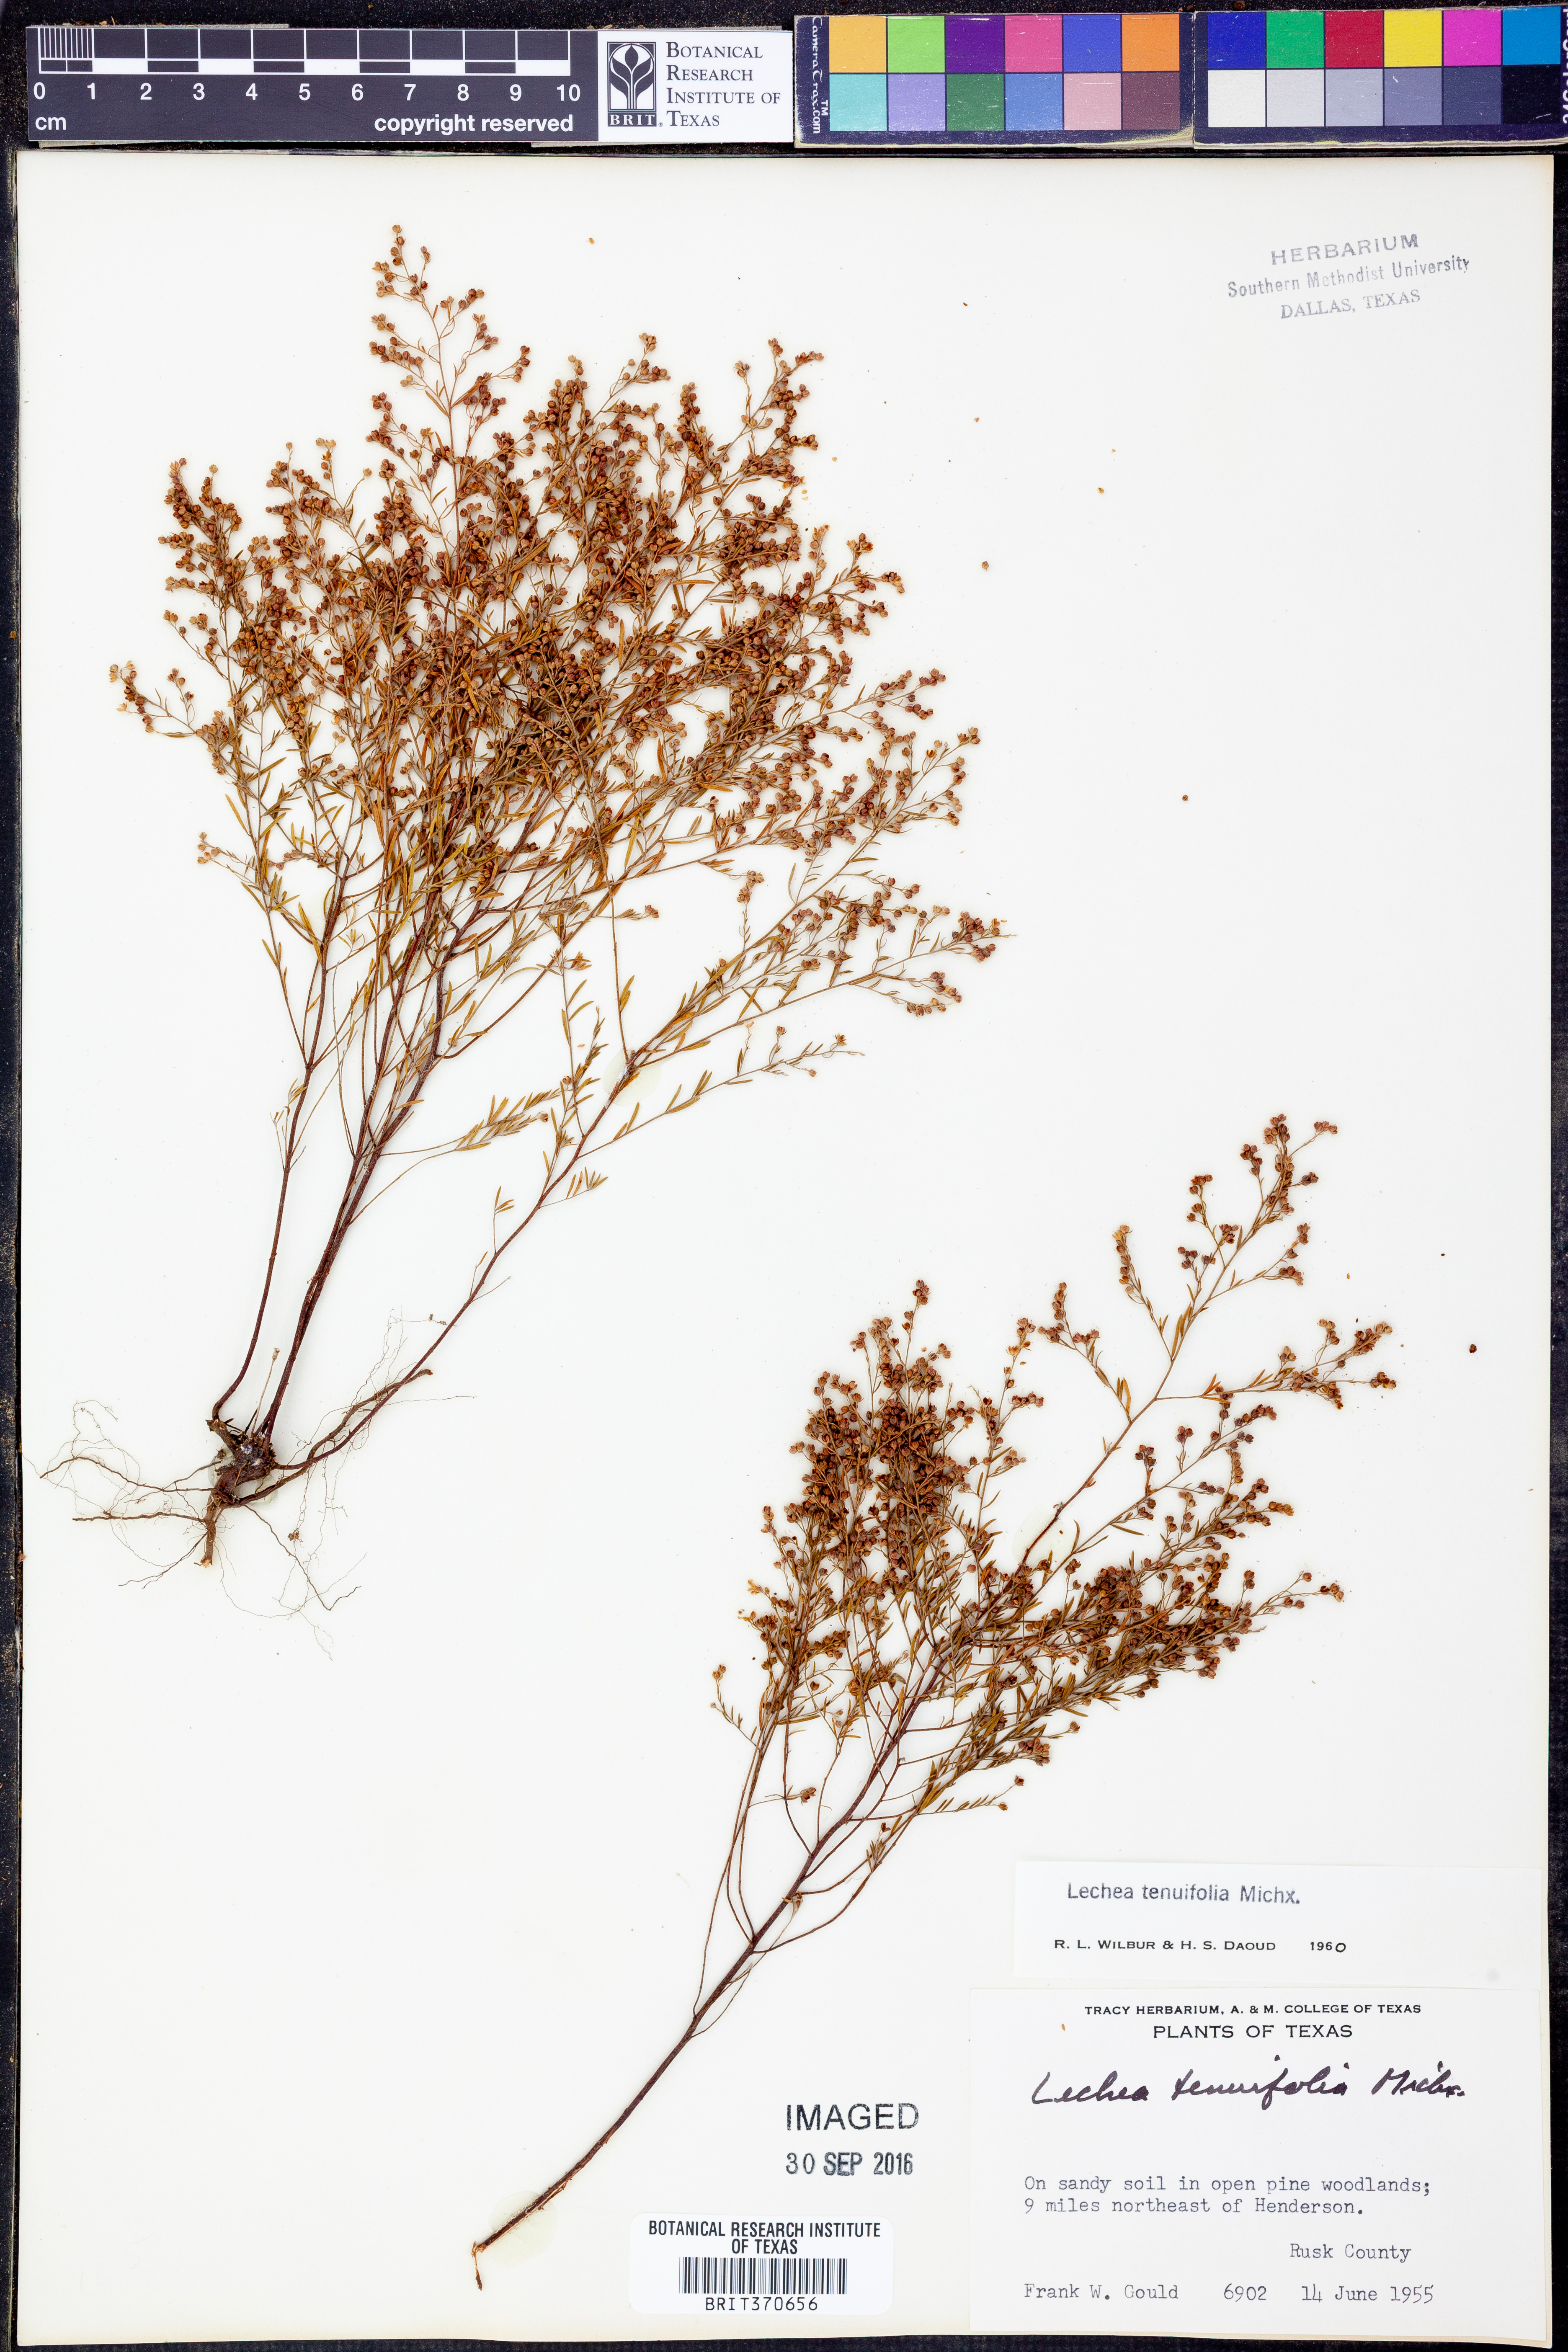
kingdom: Plantae
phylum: Tracheophyta
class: Magnoliopsida
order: Malvales
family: Cistaceae
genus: Lechea
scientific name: Lechea tenuifolia
